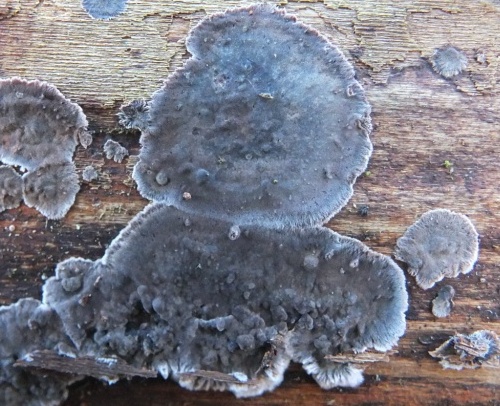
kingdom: Fungi
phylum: Basidiomycota
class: Agaricomycetes
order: Russulales
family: Peniophoraceae
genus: Peniophora
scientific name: Peniophora rufomarginata
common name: linde-voksskind
